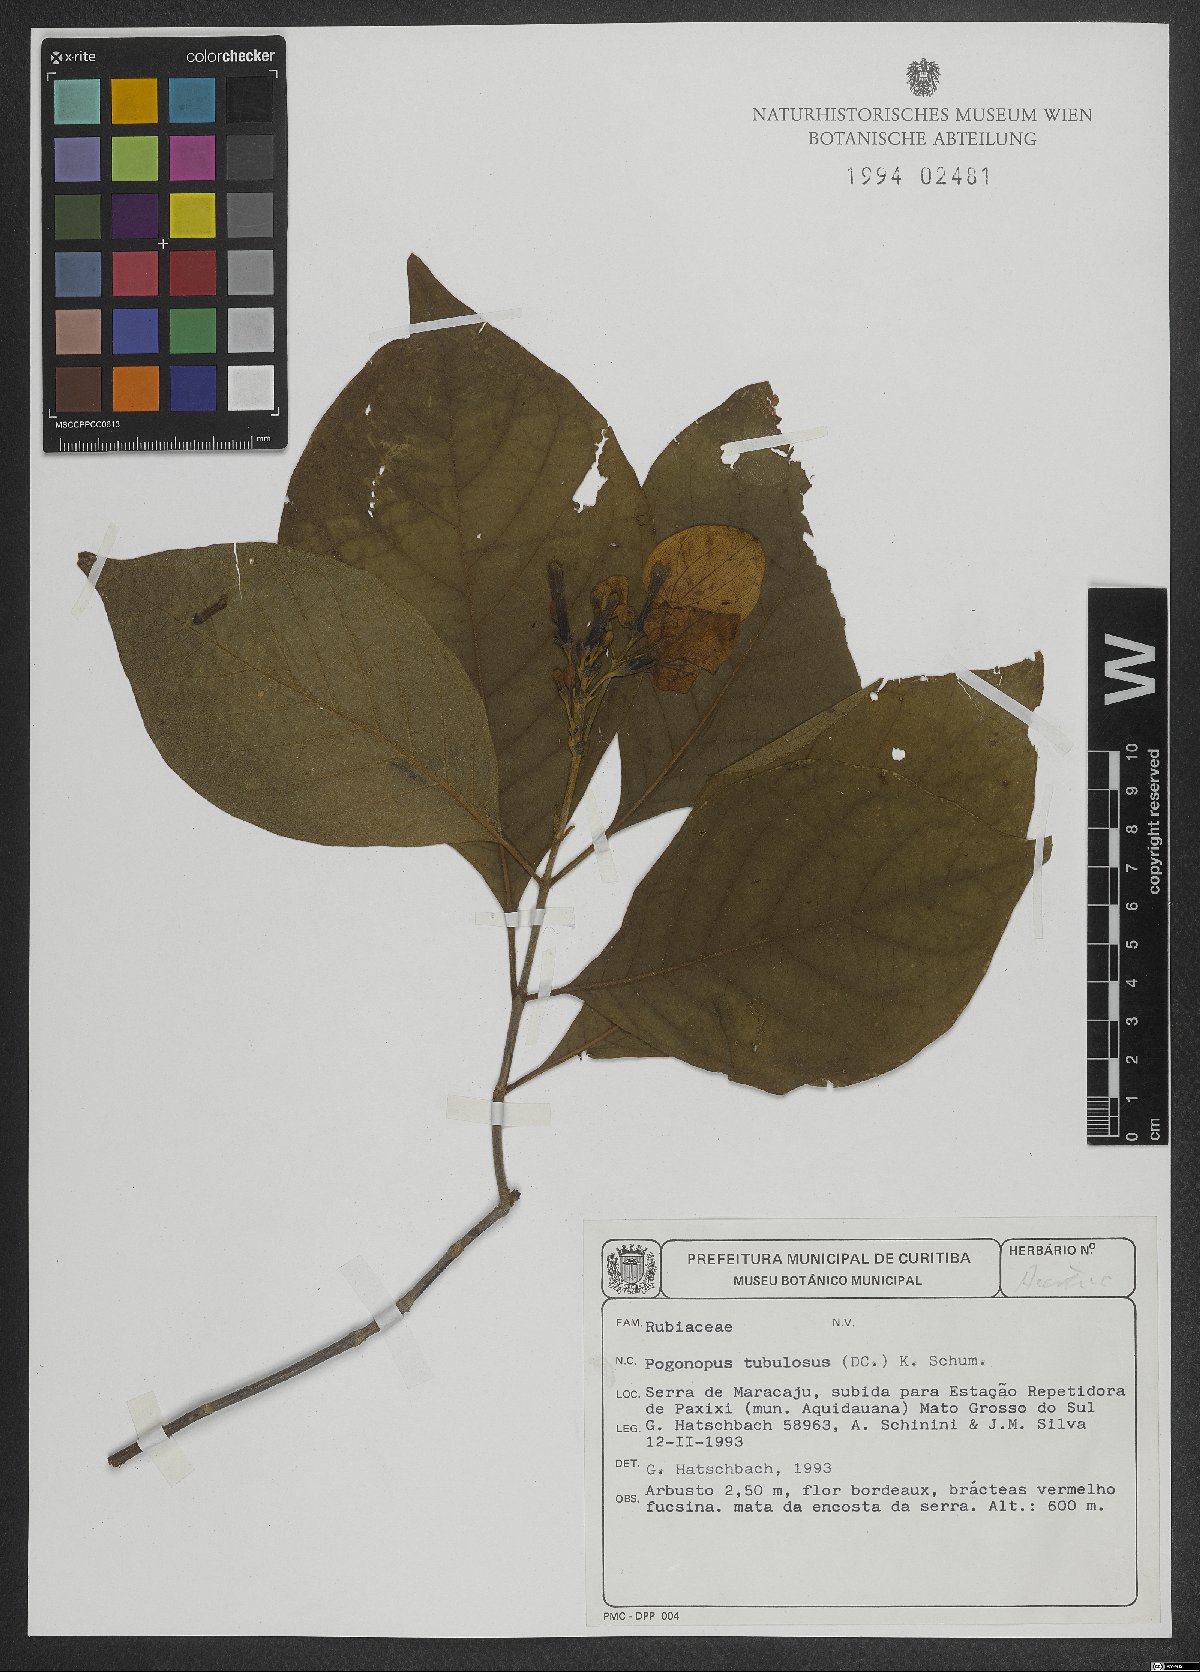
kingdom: Plantae
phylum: Tracheophyta
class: Magnoliopsida
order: Gentianales
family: Rubiaceae
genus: Pogonopus
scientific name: Pogonopus tubulosus
